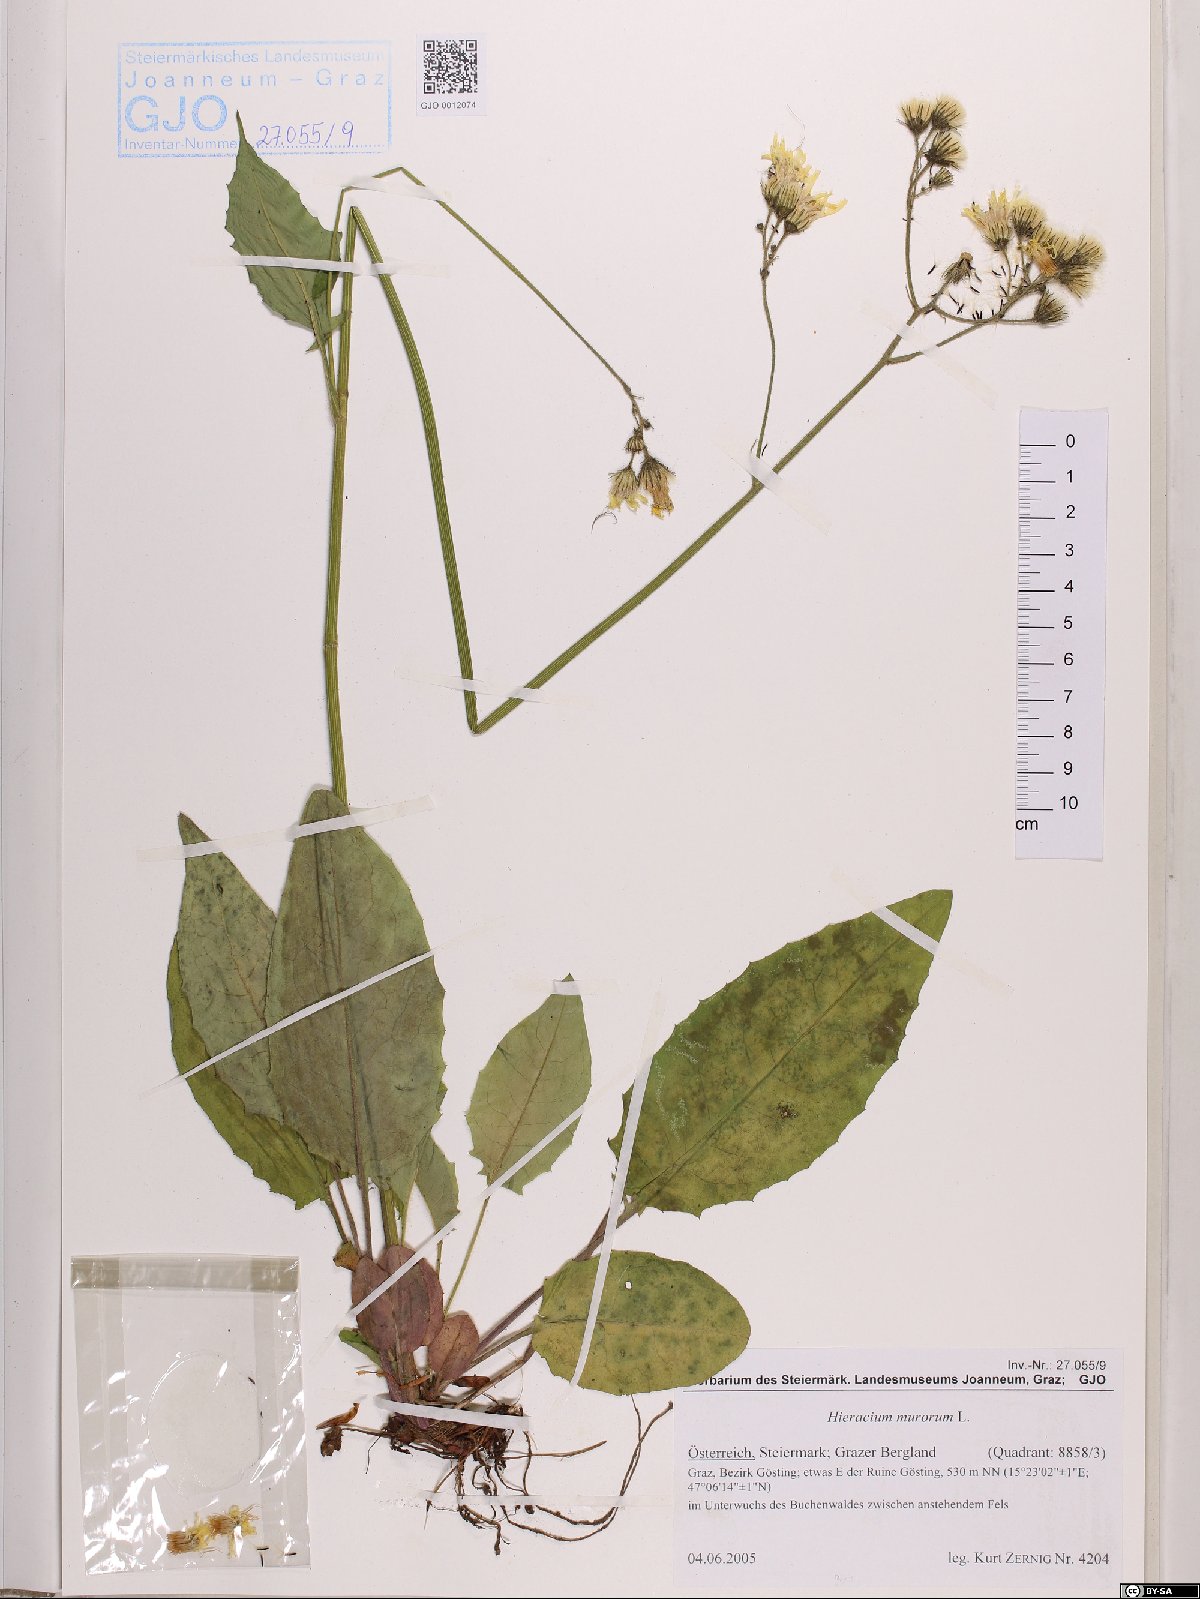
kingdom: Plantae
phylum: Tracheophyta
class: Magnoliopsida
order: Asterales
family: Asteraceae
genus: Hieracium
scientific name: Hieracium murorum
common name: Wall hawkweed
